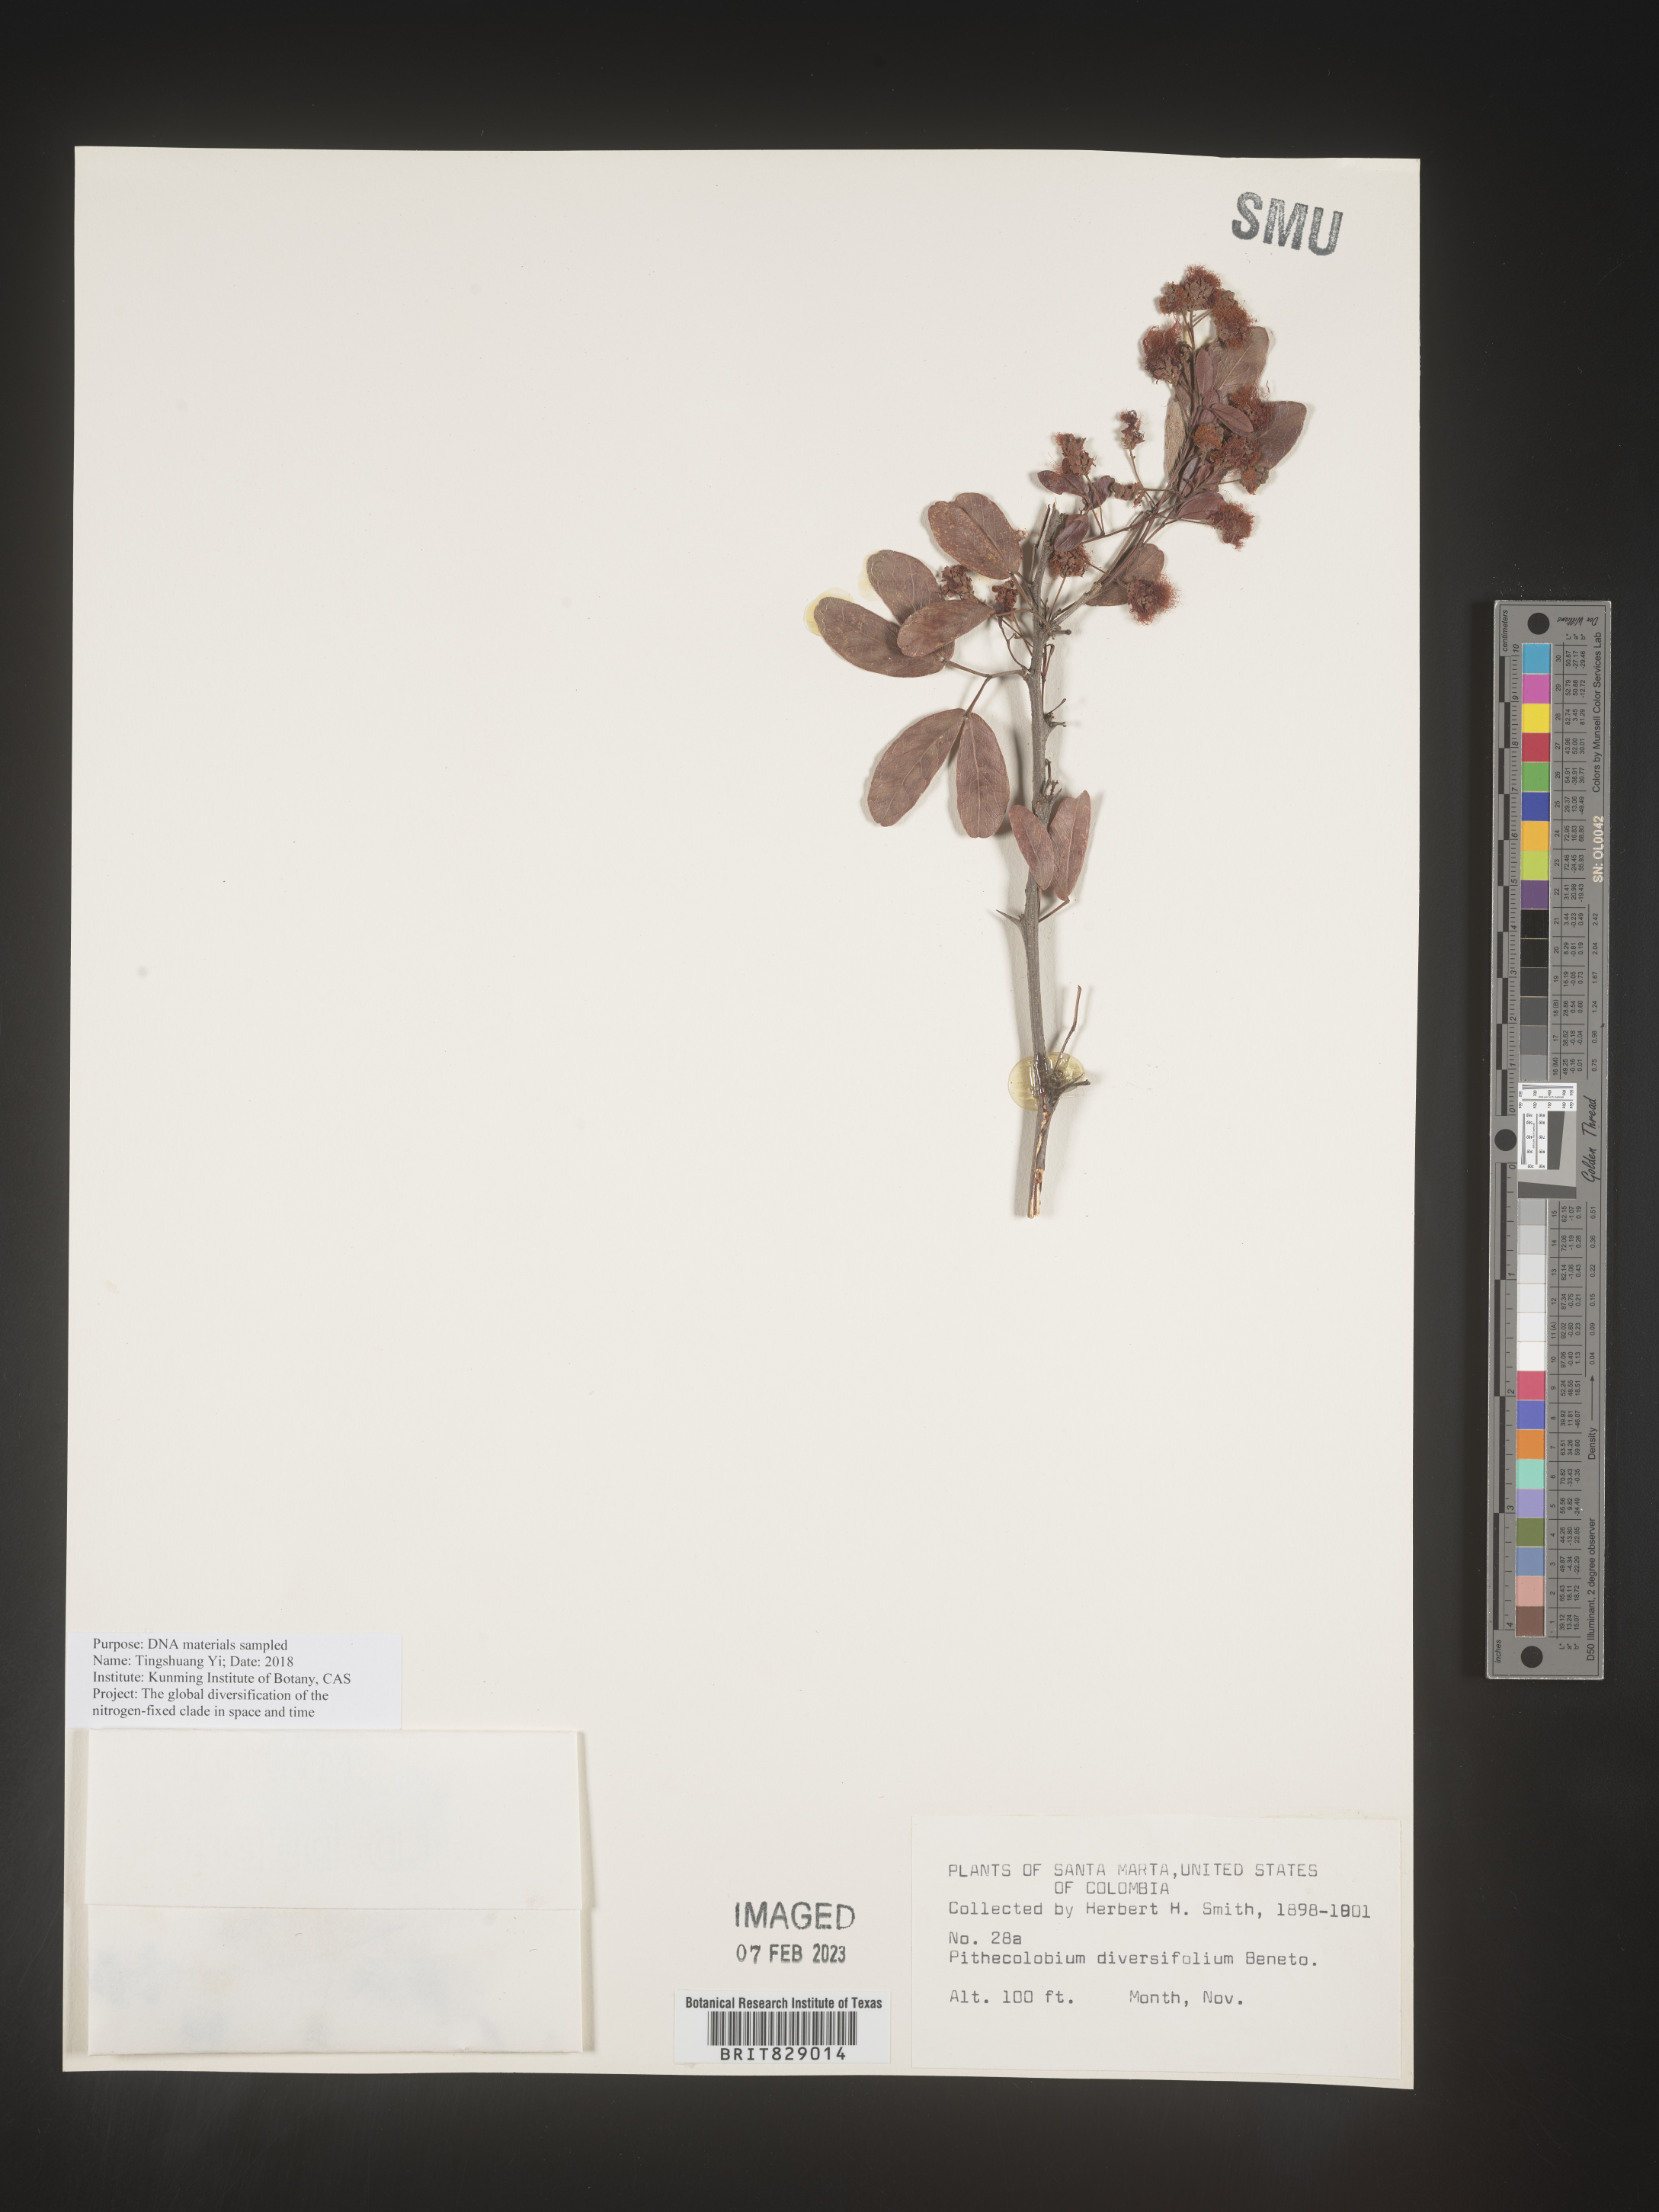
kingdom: Plantae
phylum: Tracheophyta
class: Magnoliopsida
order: Fabales
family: Fabaceae
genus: Pithecellobium
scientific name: Pithecellobium
